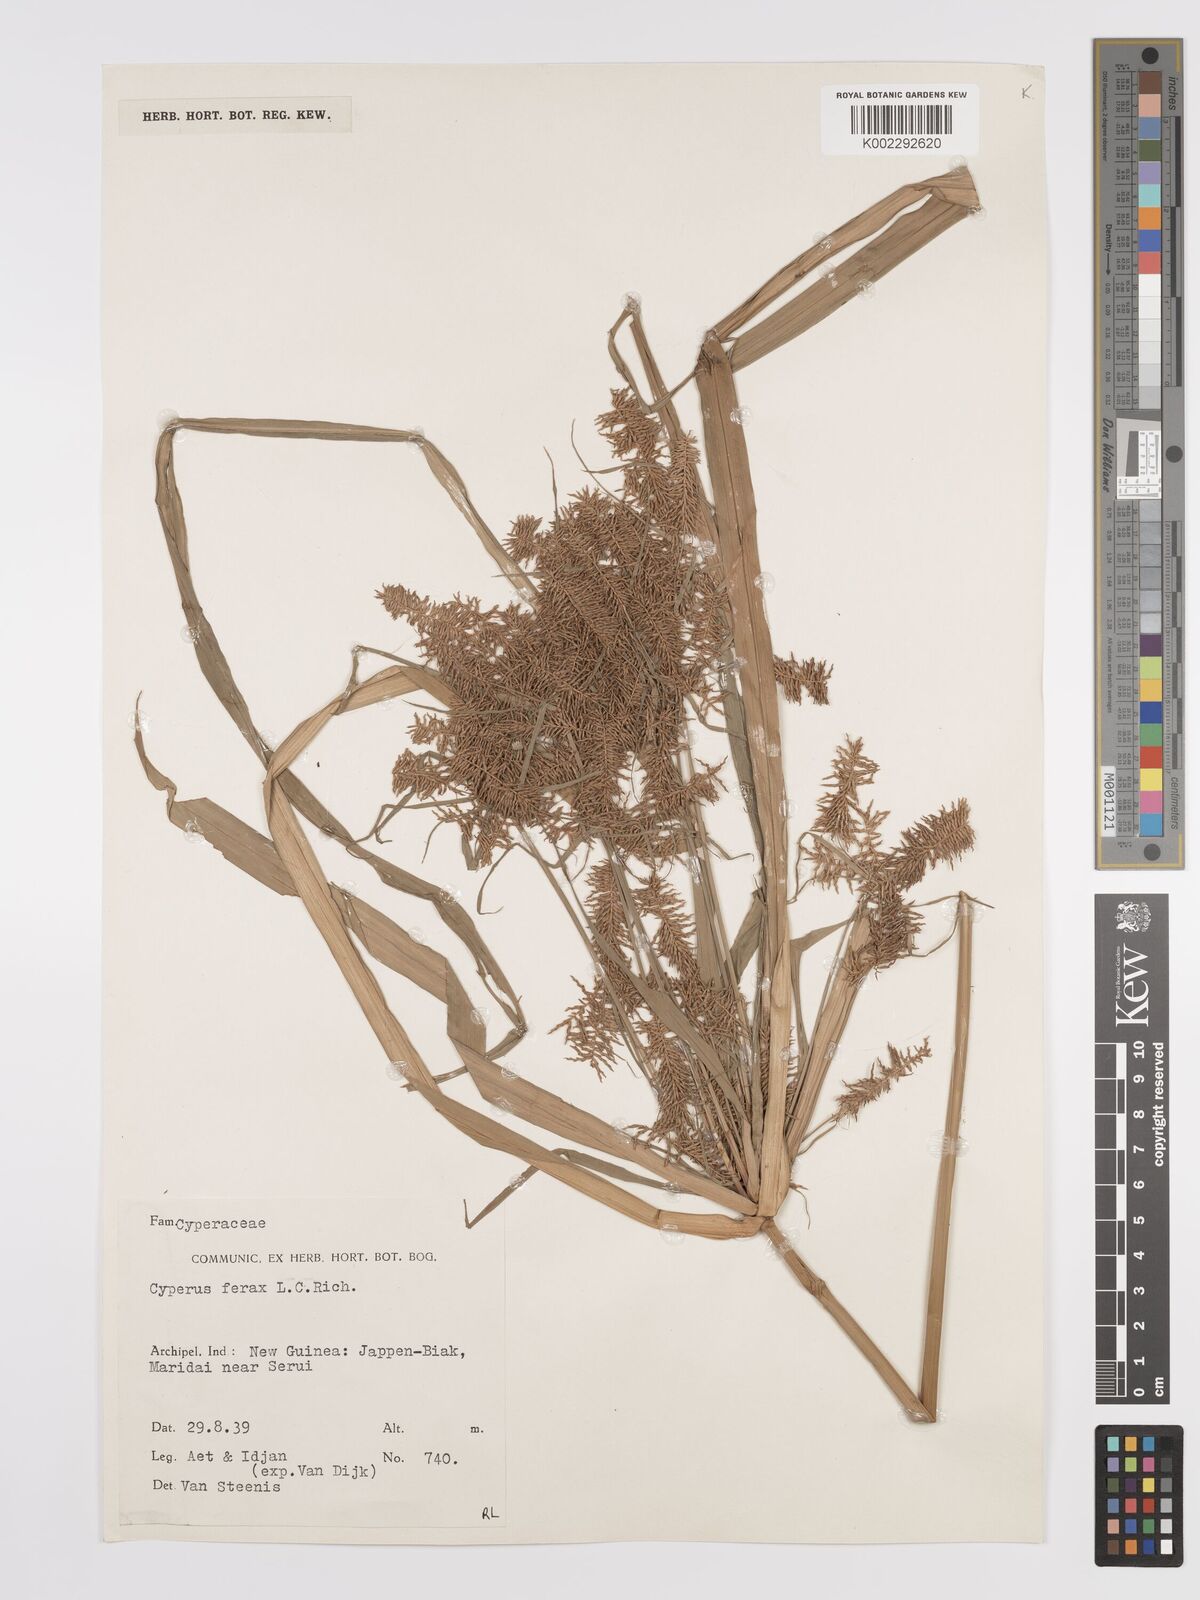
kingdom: Plantae
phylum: Tracheophyta
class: Liliopsida
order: Poales
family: Cyperaceae
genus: Cyperus
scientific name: Cyperus odoratus
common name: Fragrant flatsedge
